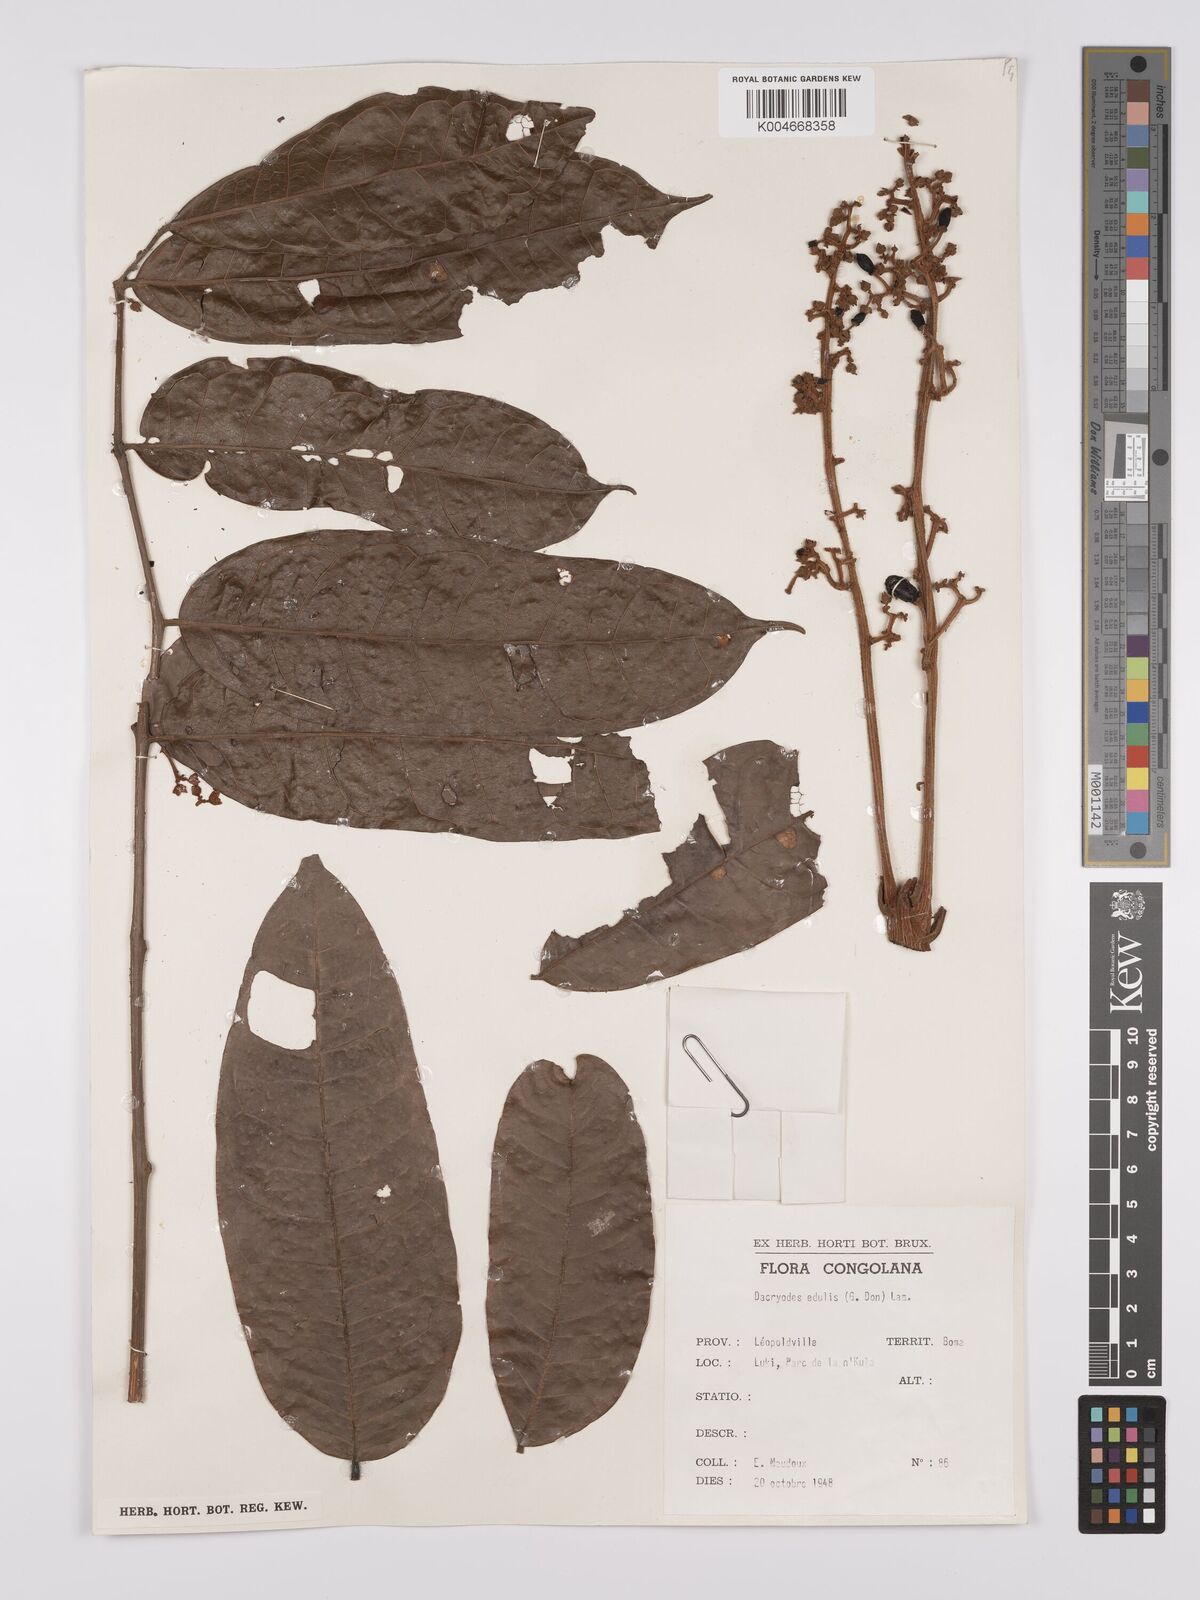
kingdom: Plantae
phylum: Tracheophyta
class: Magnoliopsida
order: Sapindales
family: Burseraceae
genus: Pachylobus
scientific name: Pachylobus edulis
